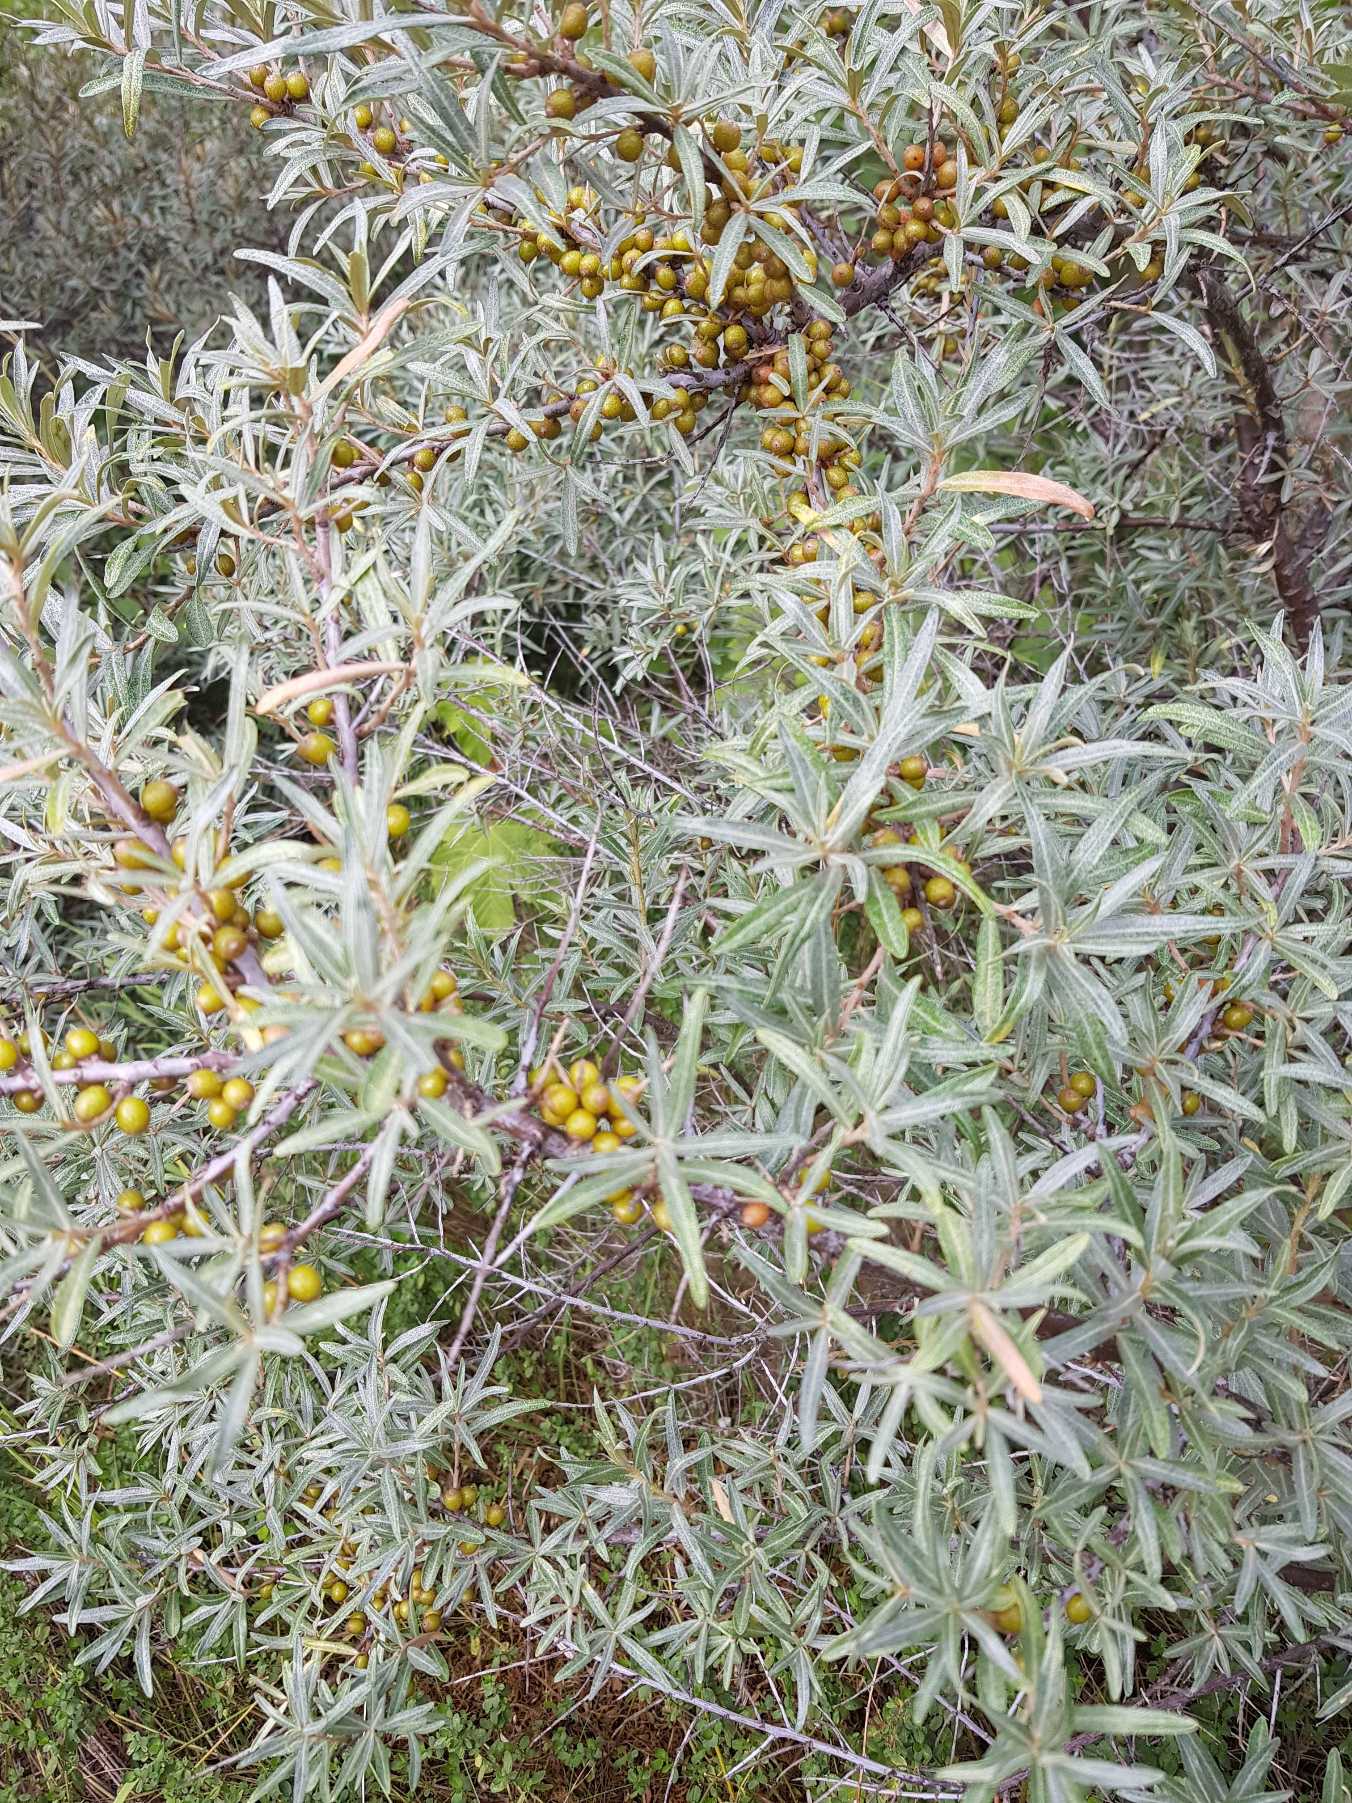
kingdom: Plantae
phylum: Tracheophyta
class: Magnoliopsida
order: Rosales
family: Elaeagnaceae
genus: Hippophae
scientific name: Hippophae rhamnoides
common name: Havtorn
